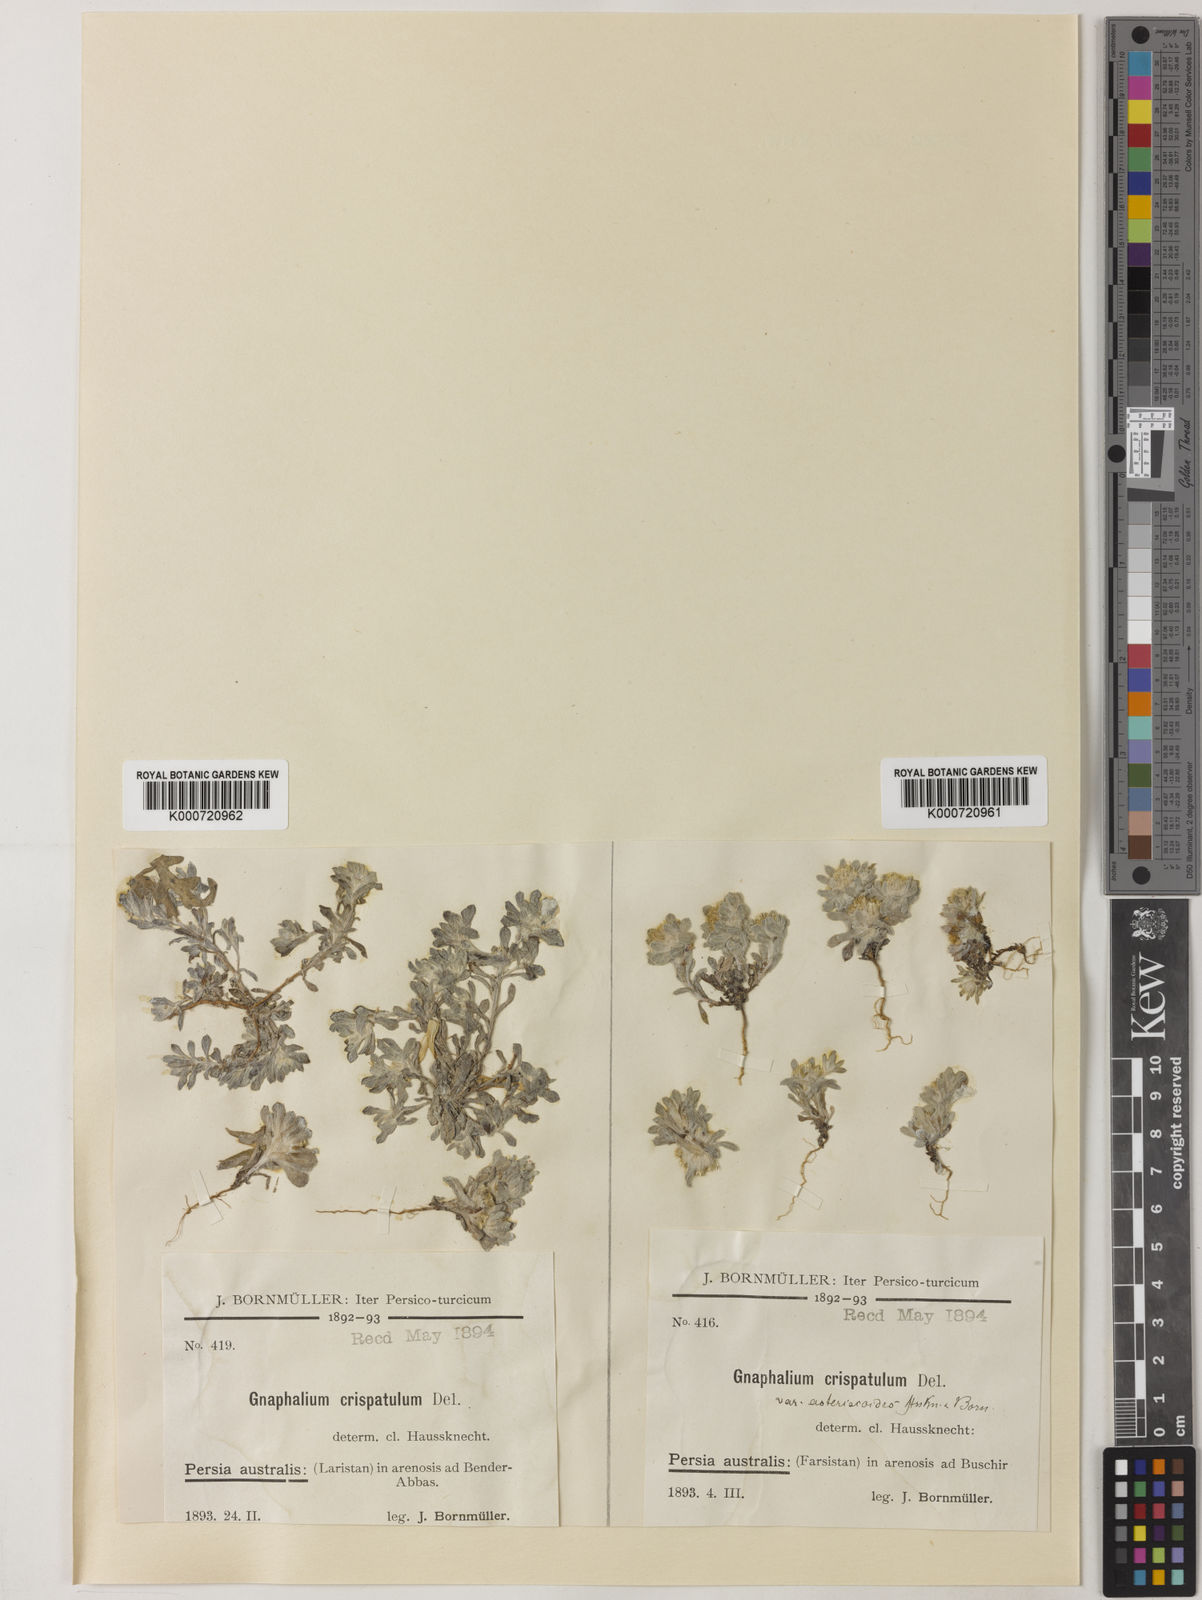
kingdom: Plantae
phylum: Tracheophyta
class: Magnoliopsida
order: Asterales
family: Asteraceae
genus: Gnomophalium
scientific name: Gnomophalium pulvinatum
